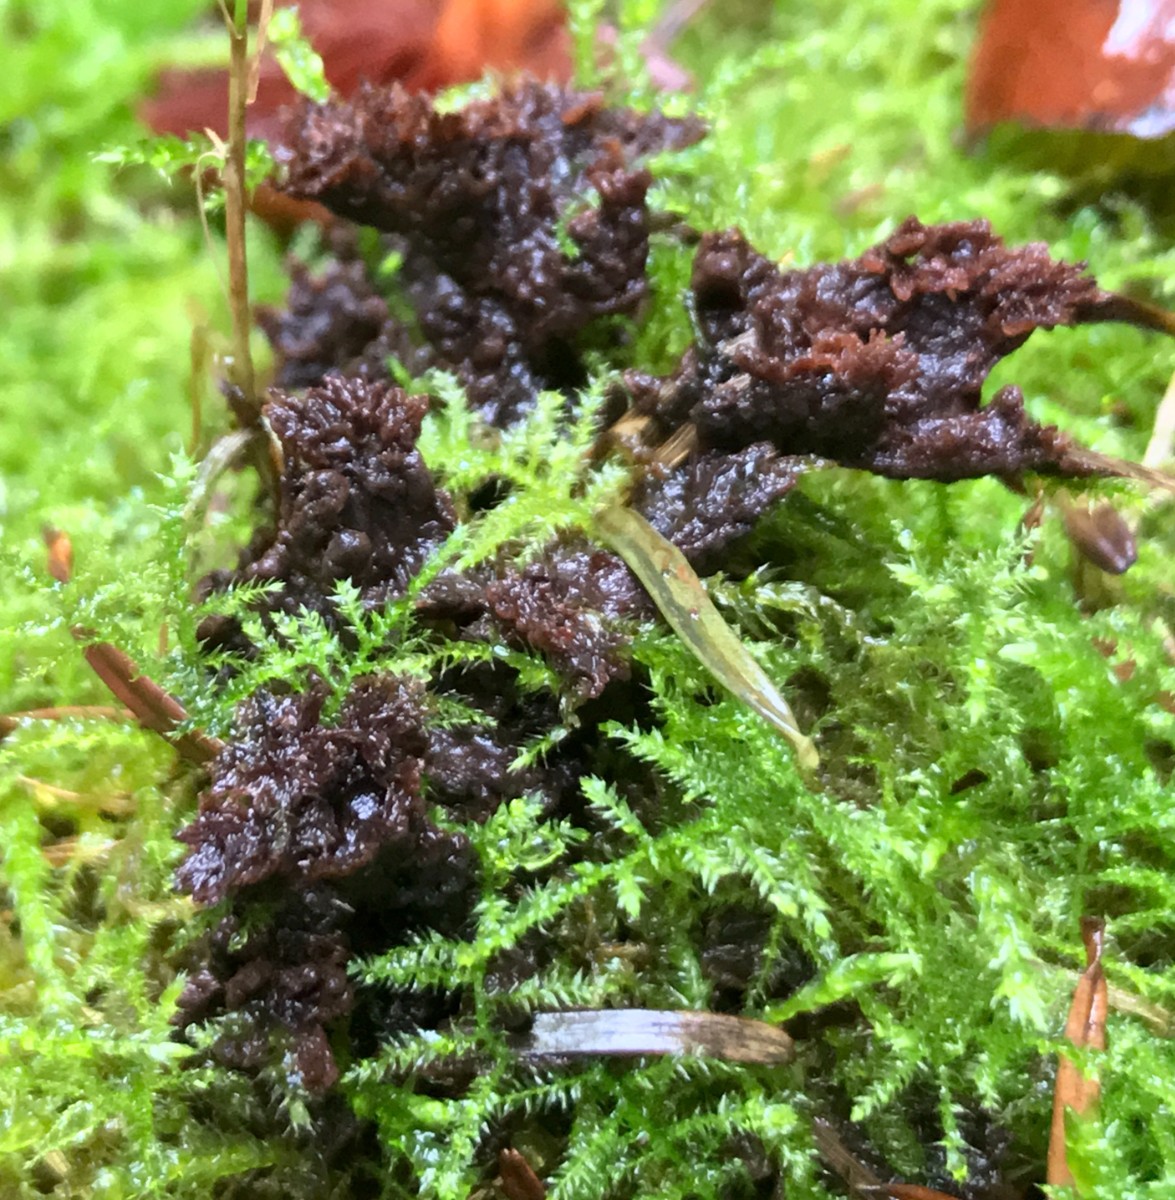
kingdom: Fungi
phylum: Basidiomycota
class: Agaricomycetes
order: Thelephorales
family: Thelephoraceae
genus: Thelephora
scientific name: Thelephora terrestris
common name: fliget frynsesvamp
